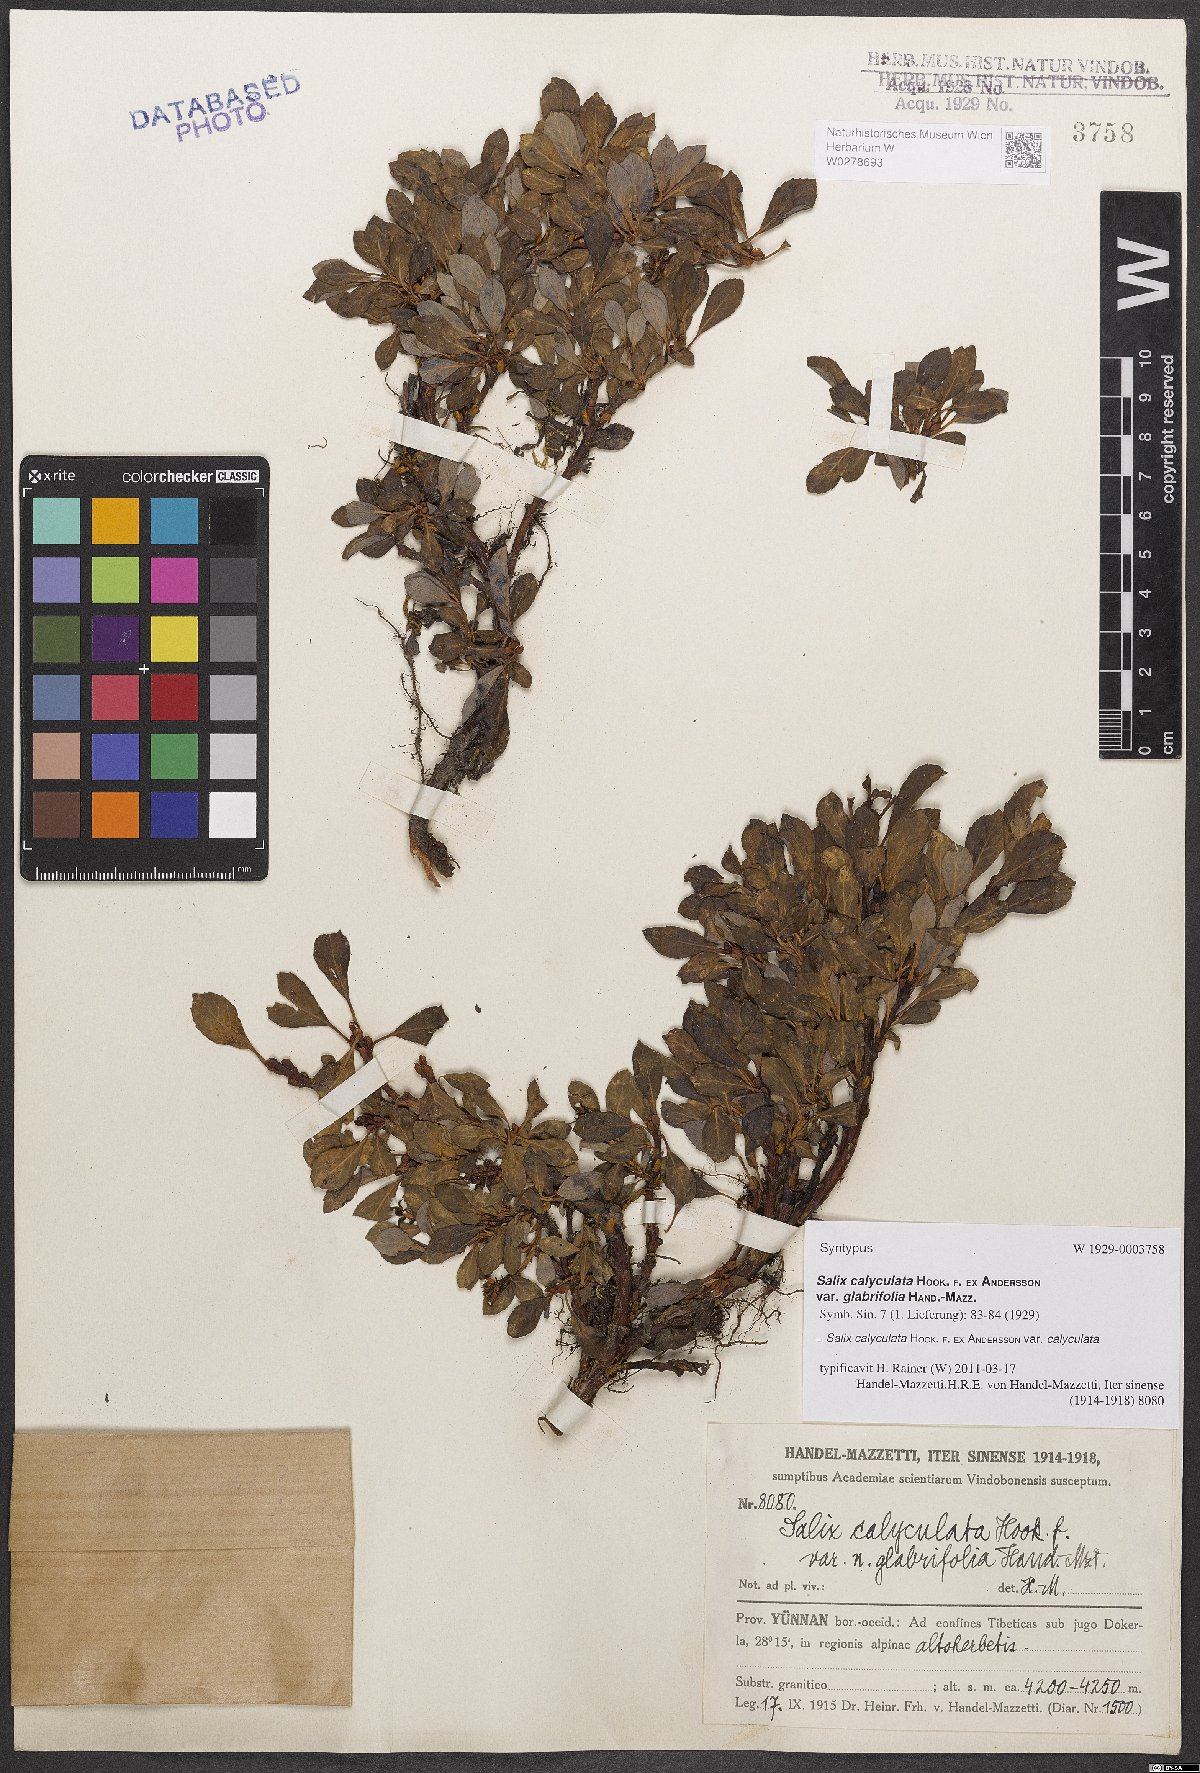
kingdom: Plantae
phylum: Tracheophyta
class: Magnoliopsida
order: Malpighiales
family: Salicaceae
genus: Salix
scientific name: Salix lindleyana
